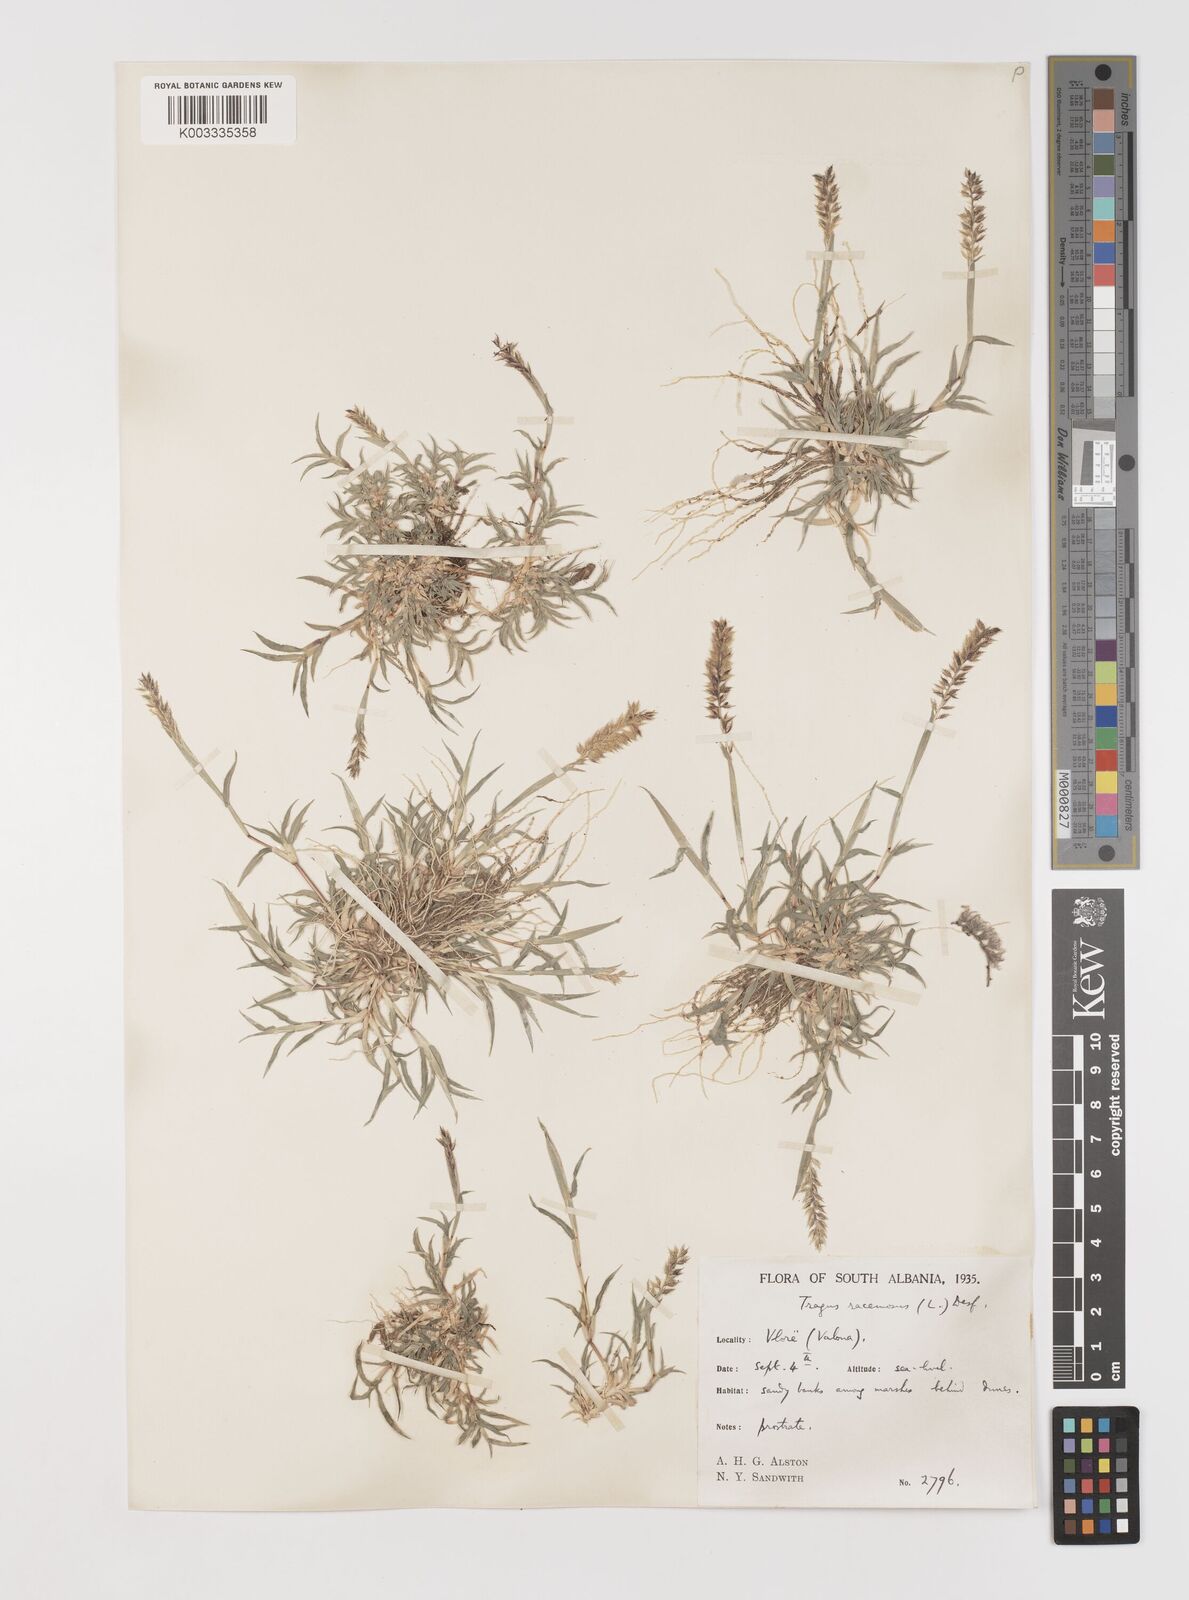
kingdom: Plantae
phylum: Tracheophyta
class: Liliopsida
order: Poales
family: Poaceae
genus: Tragus
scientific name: Tragus racemosus
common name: European bur-grass
